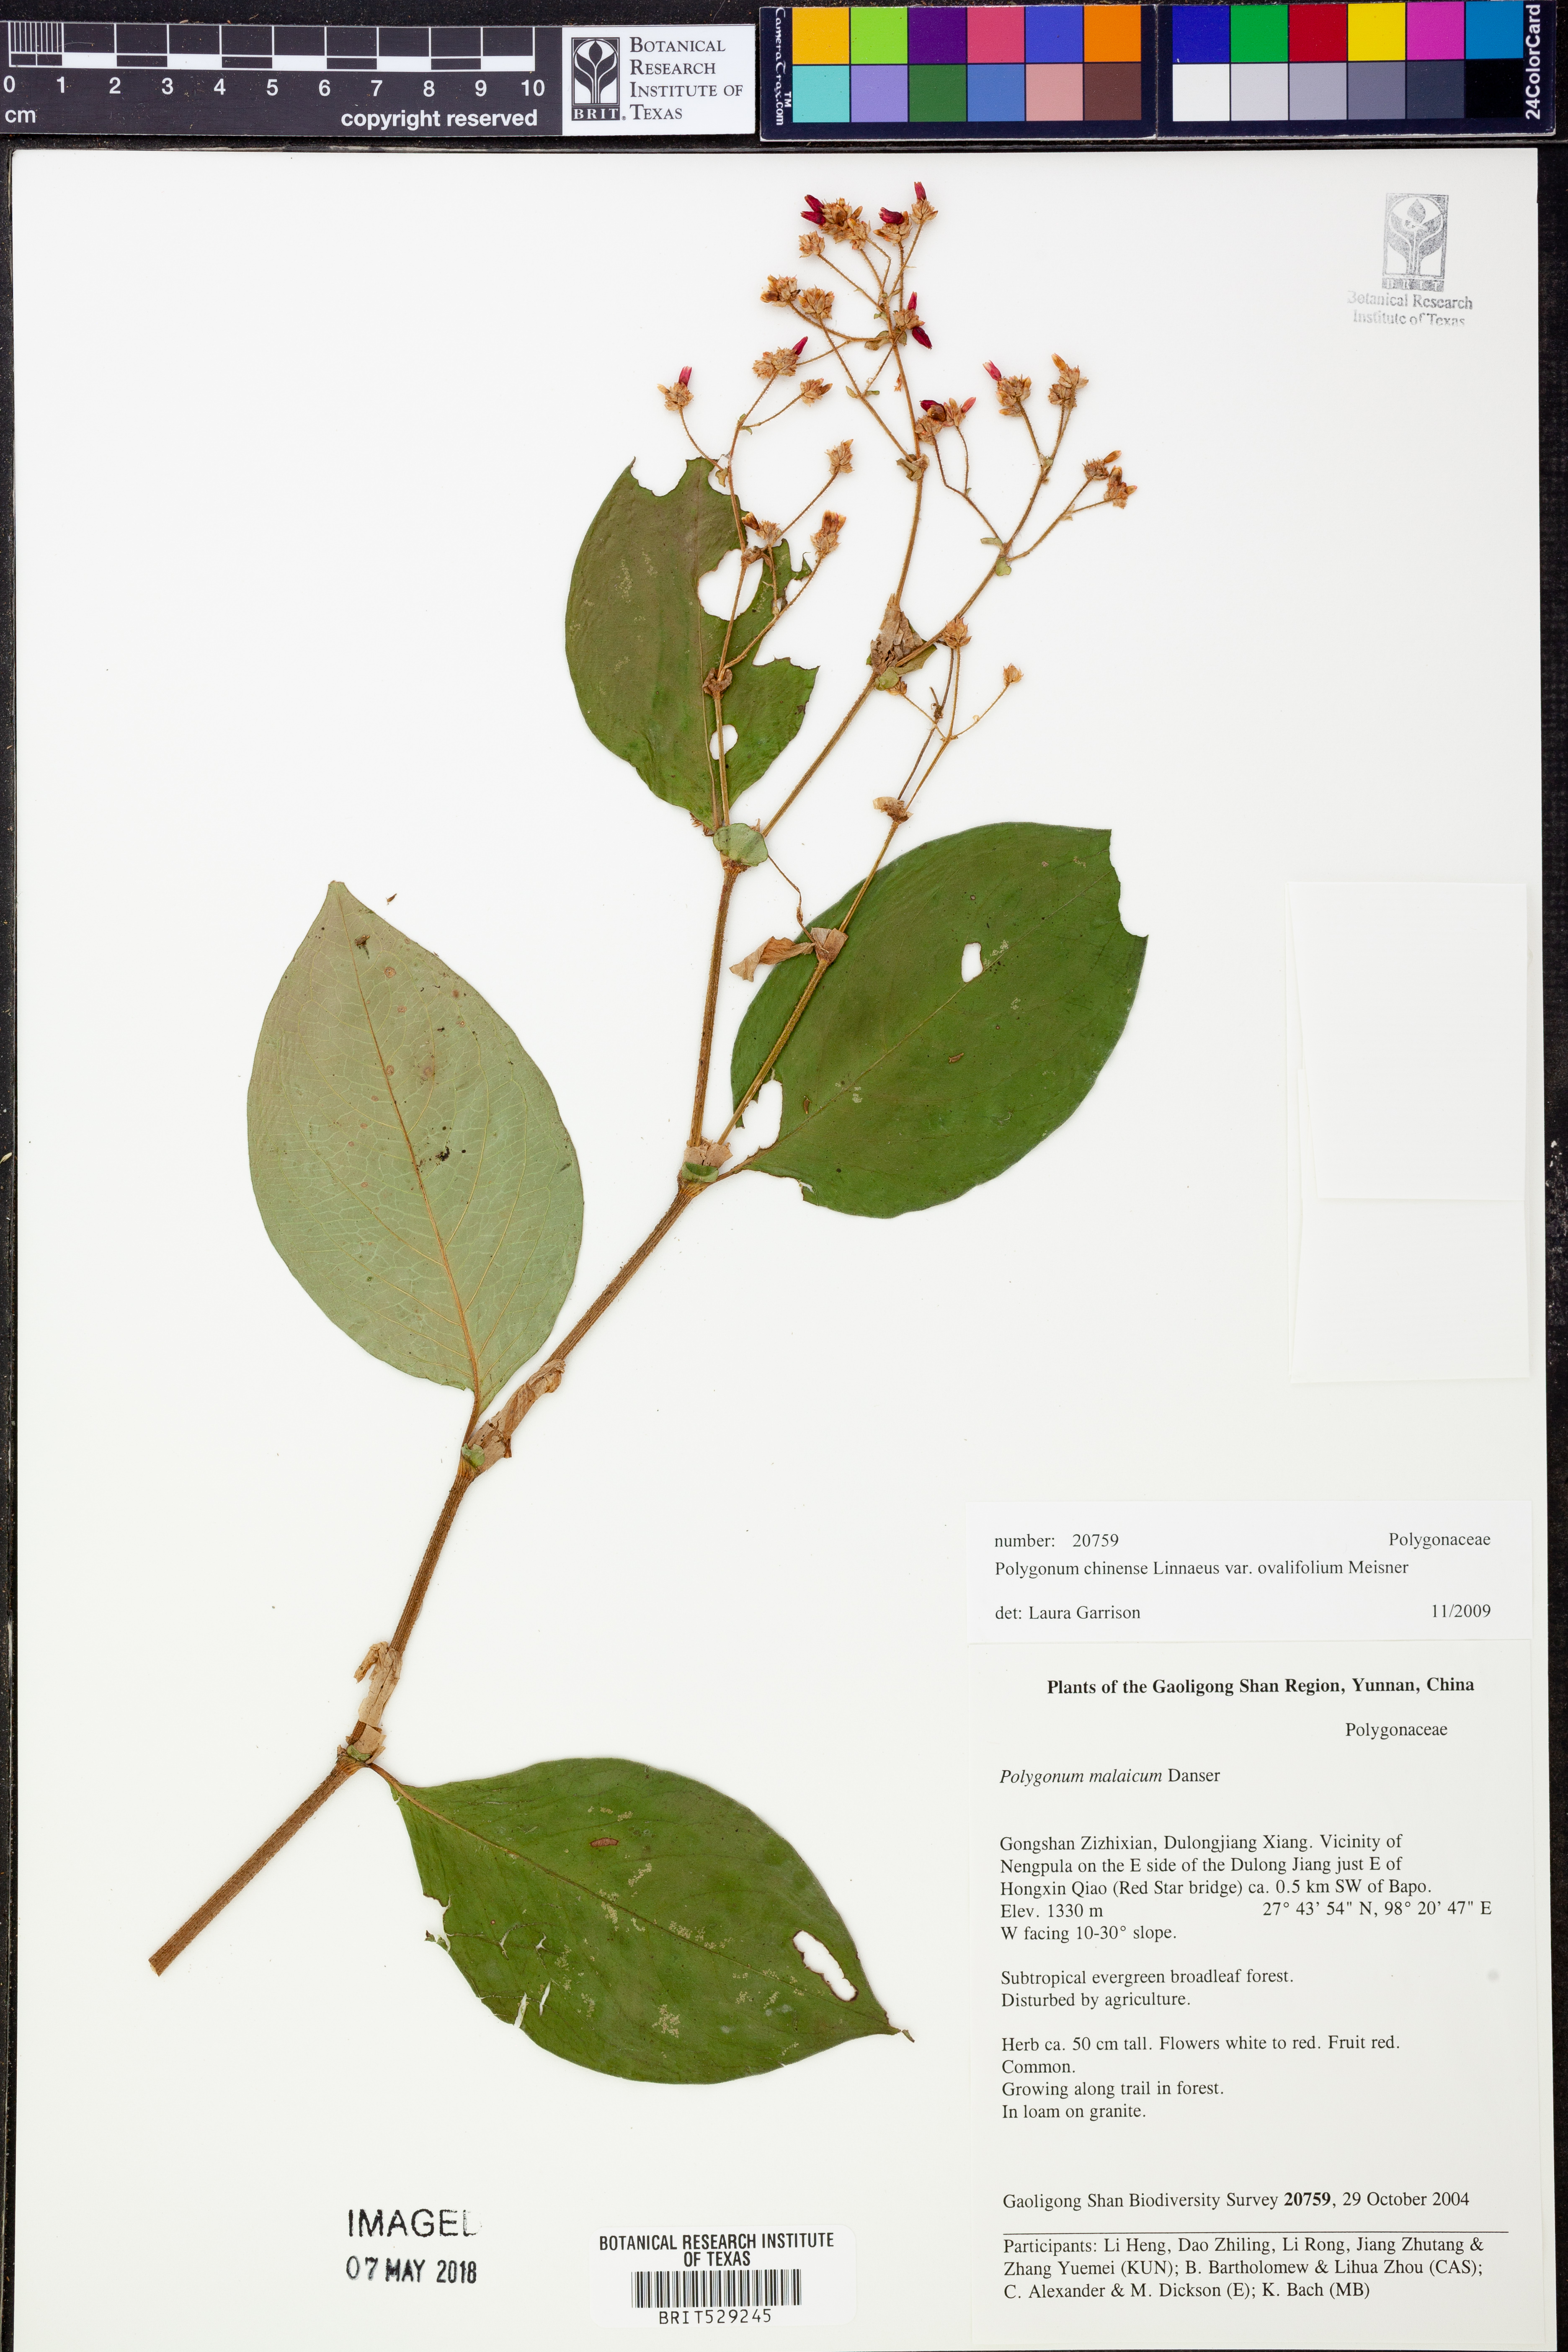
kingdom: Plantae
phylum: Tracheophyta
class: Magnoliopsida
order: Caryophyllales
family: Polygonaceae
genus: Persicaria
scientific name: Persicaria chinensis
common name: Chinese knotweed
